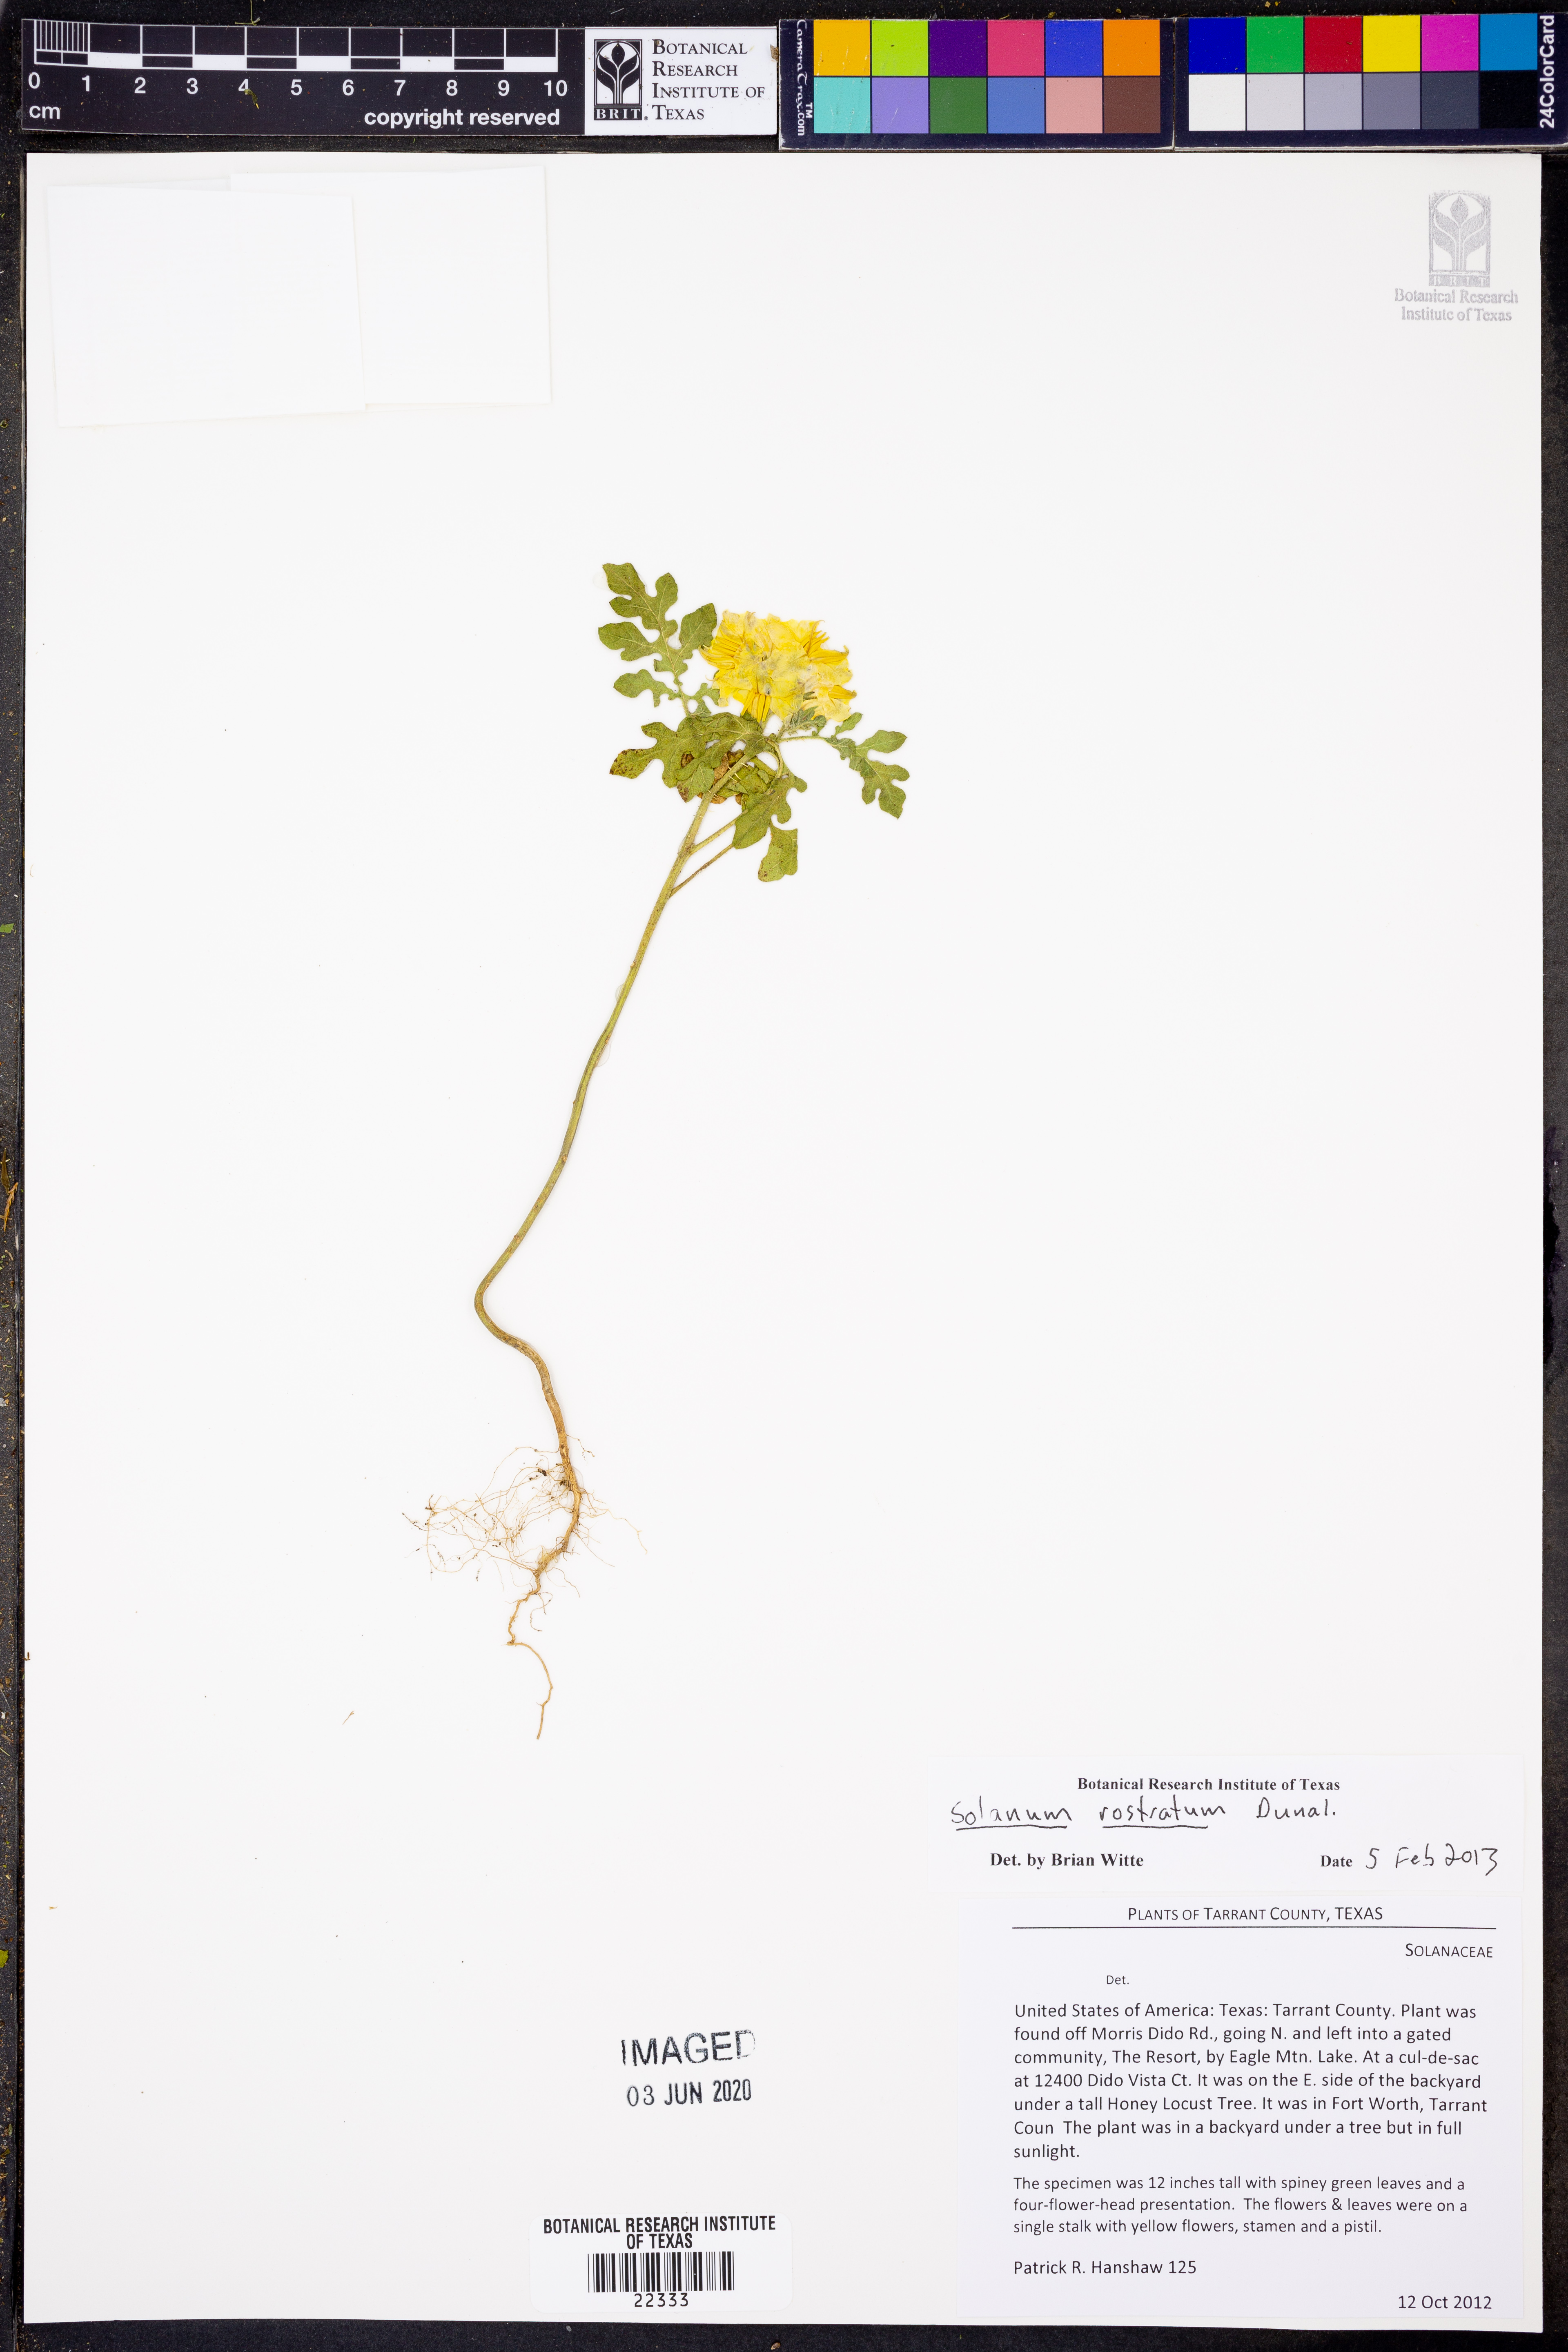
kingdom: Plantae
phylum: Tracheophyta
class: Magnoliopsida
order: Solanales
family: Solanaceae
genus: Solanum
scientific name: Solanum angustifolium
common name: Buffalobur nightshade
